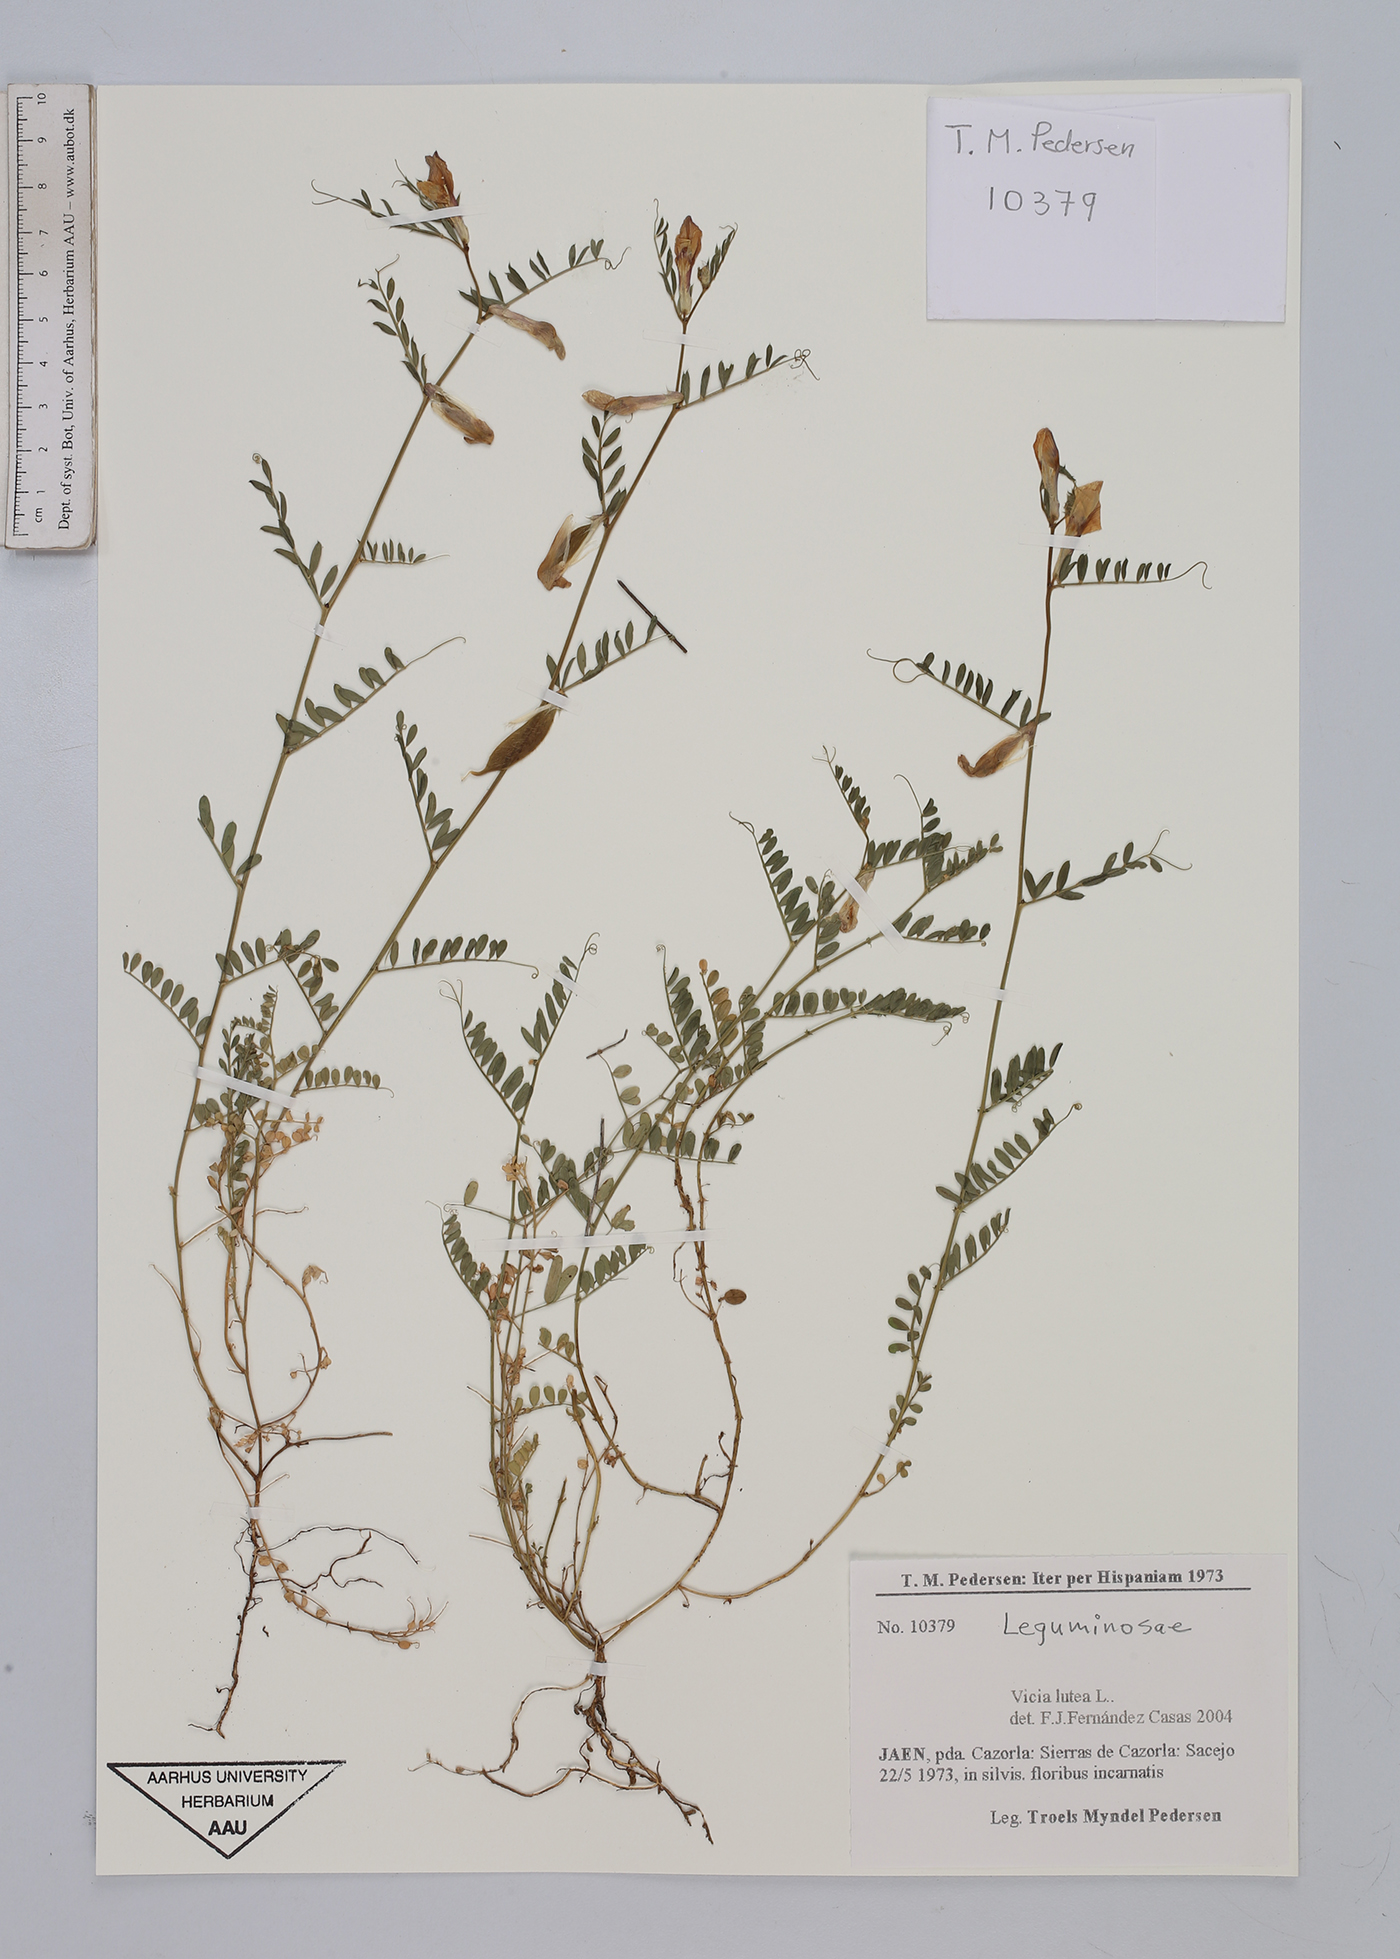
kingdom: Plantae
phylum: Tracheophyta
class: Magnoliopsida
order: Fabales
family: Fabaceae
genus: Vicia
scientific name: Vicia lutea
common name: Smooth yellow vetch
